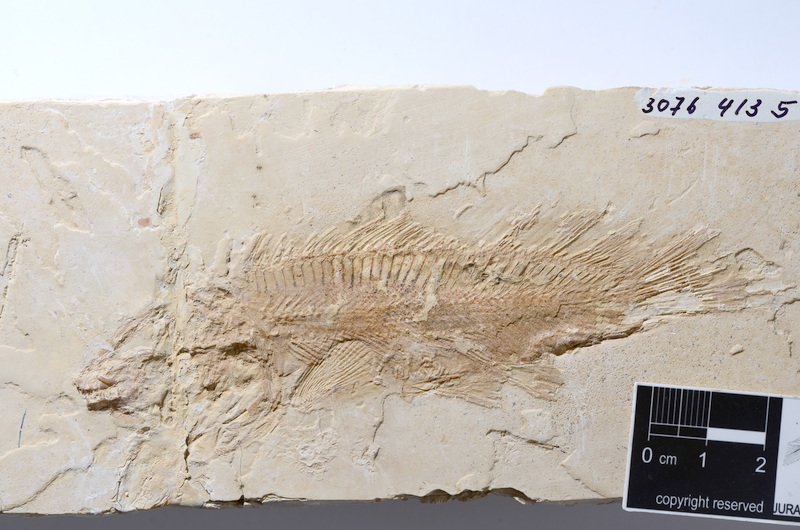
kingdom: Animalia
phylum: Chordata
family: Macrosemiidae
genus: Macrosemius
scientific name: Macrosemius rostratus
